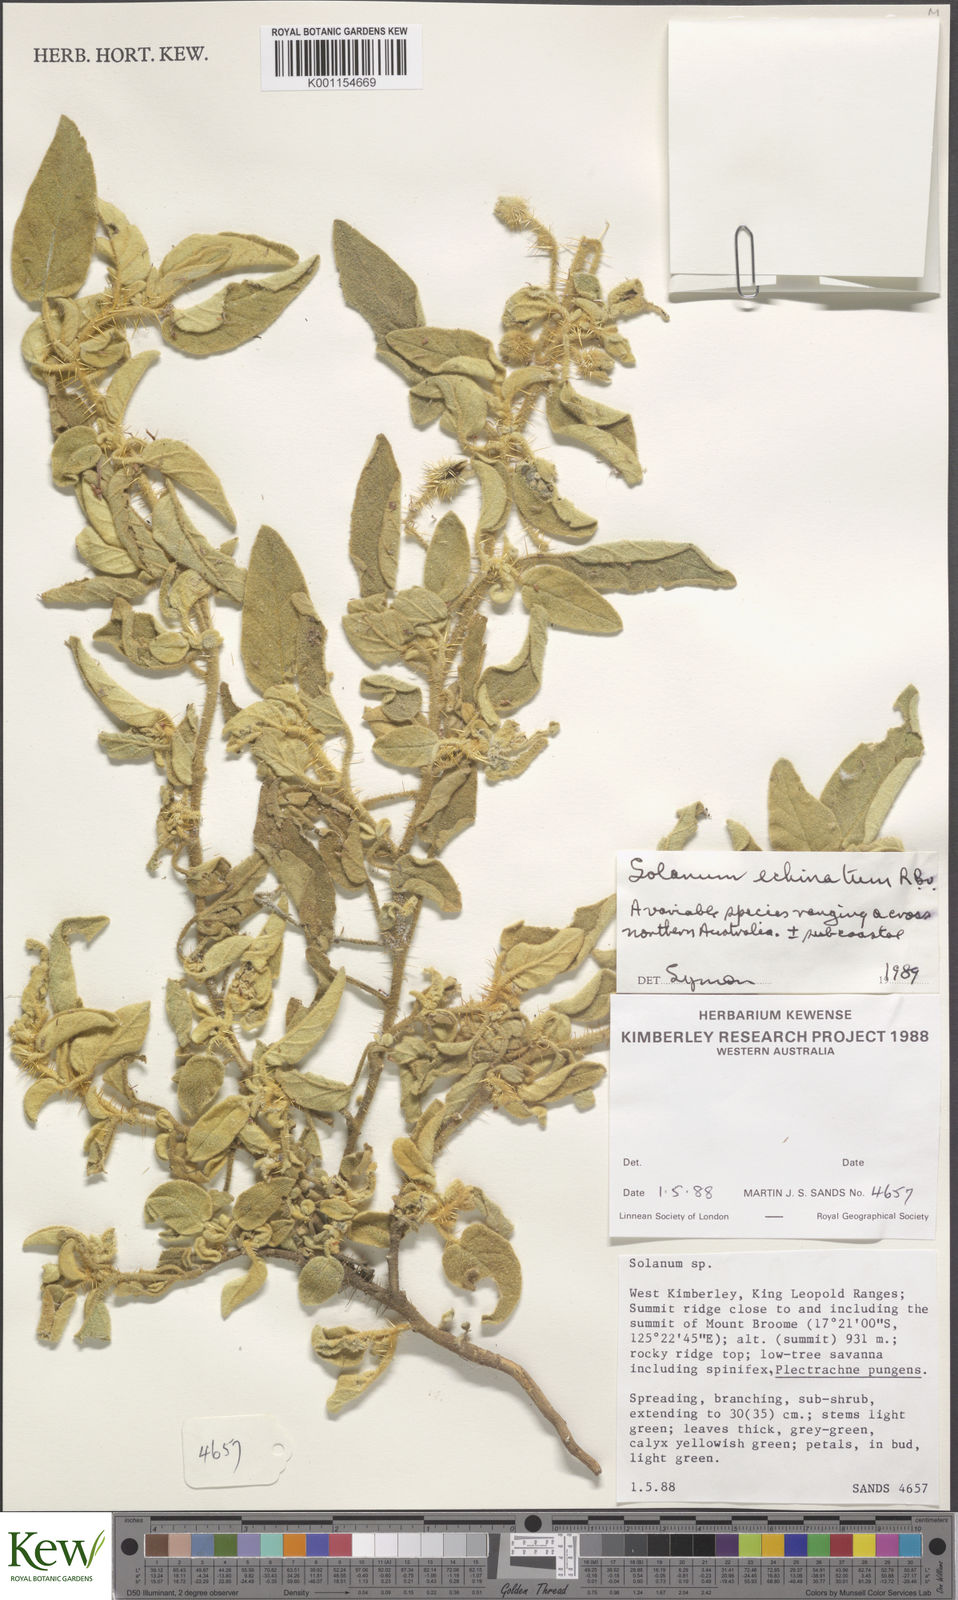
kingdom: Plantae
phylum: Tracheophyta
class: Magnoliopsida
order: Solanales
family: Solanaceae
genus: Solanum
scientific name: Solanum echinatum
